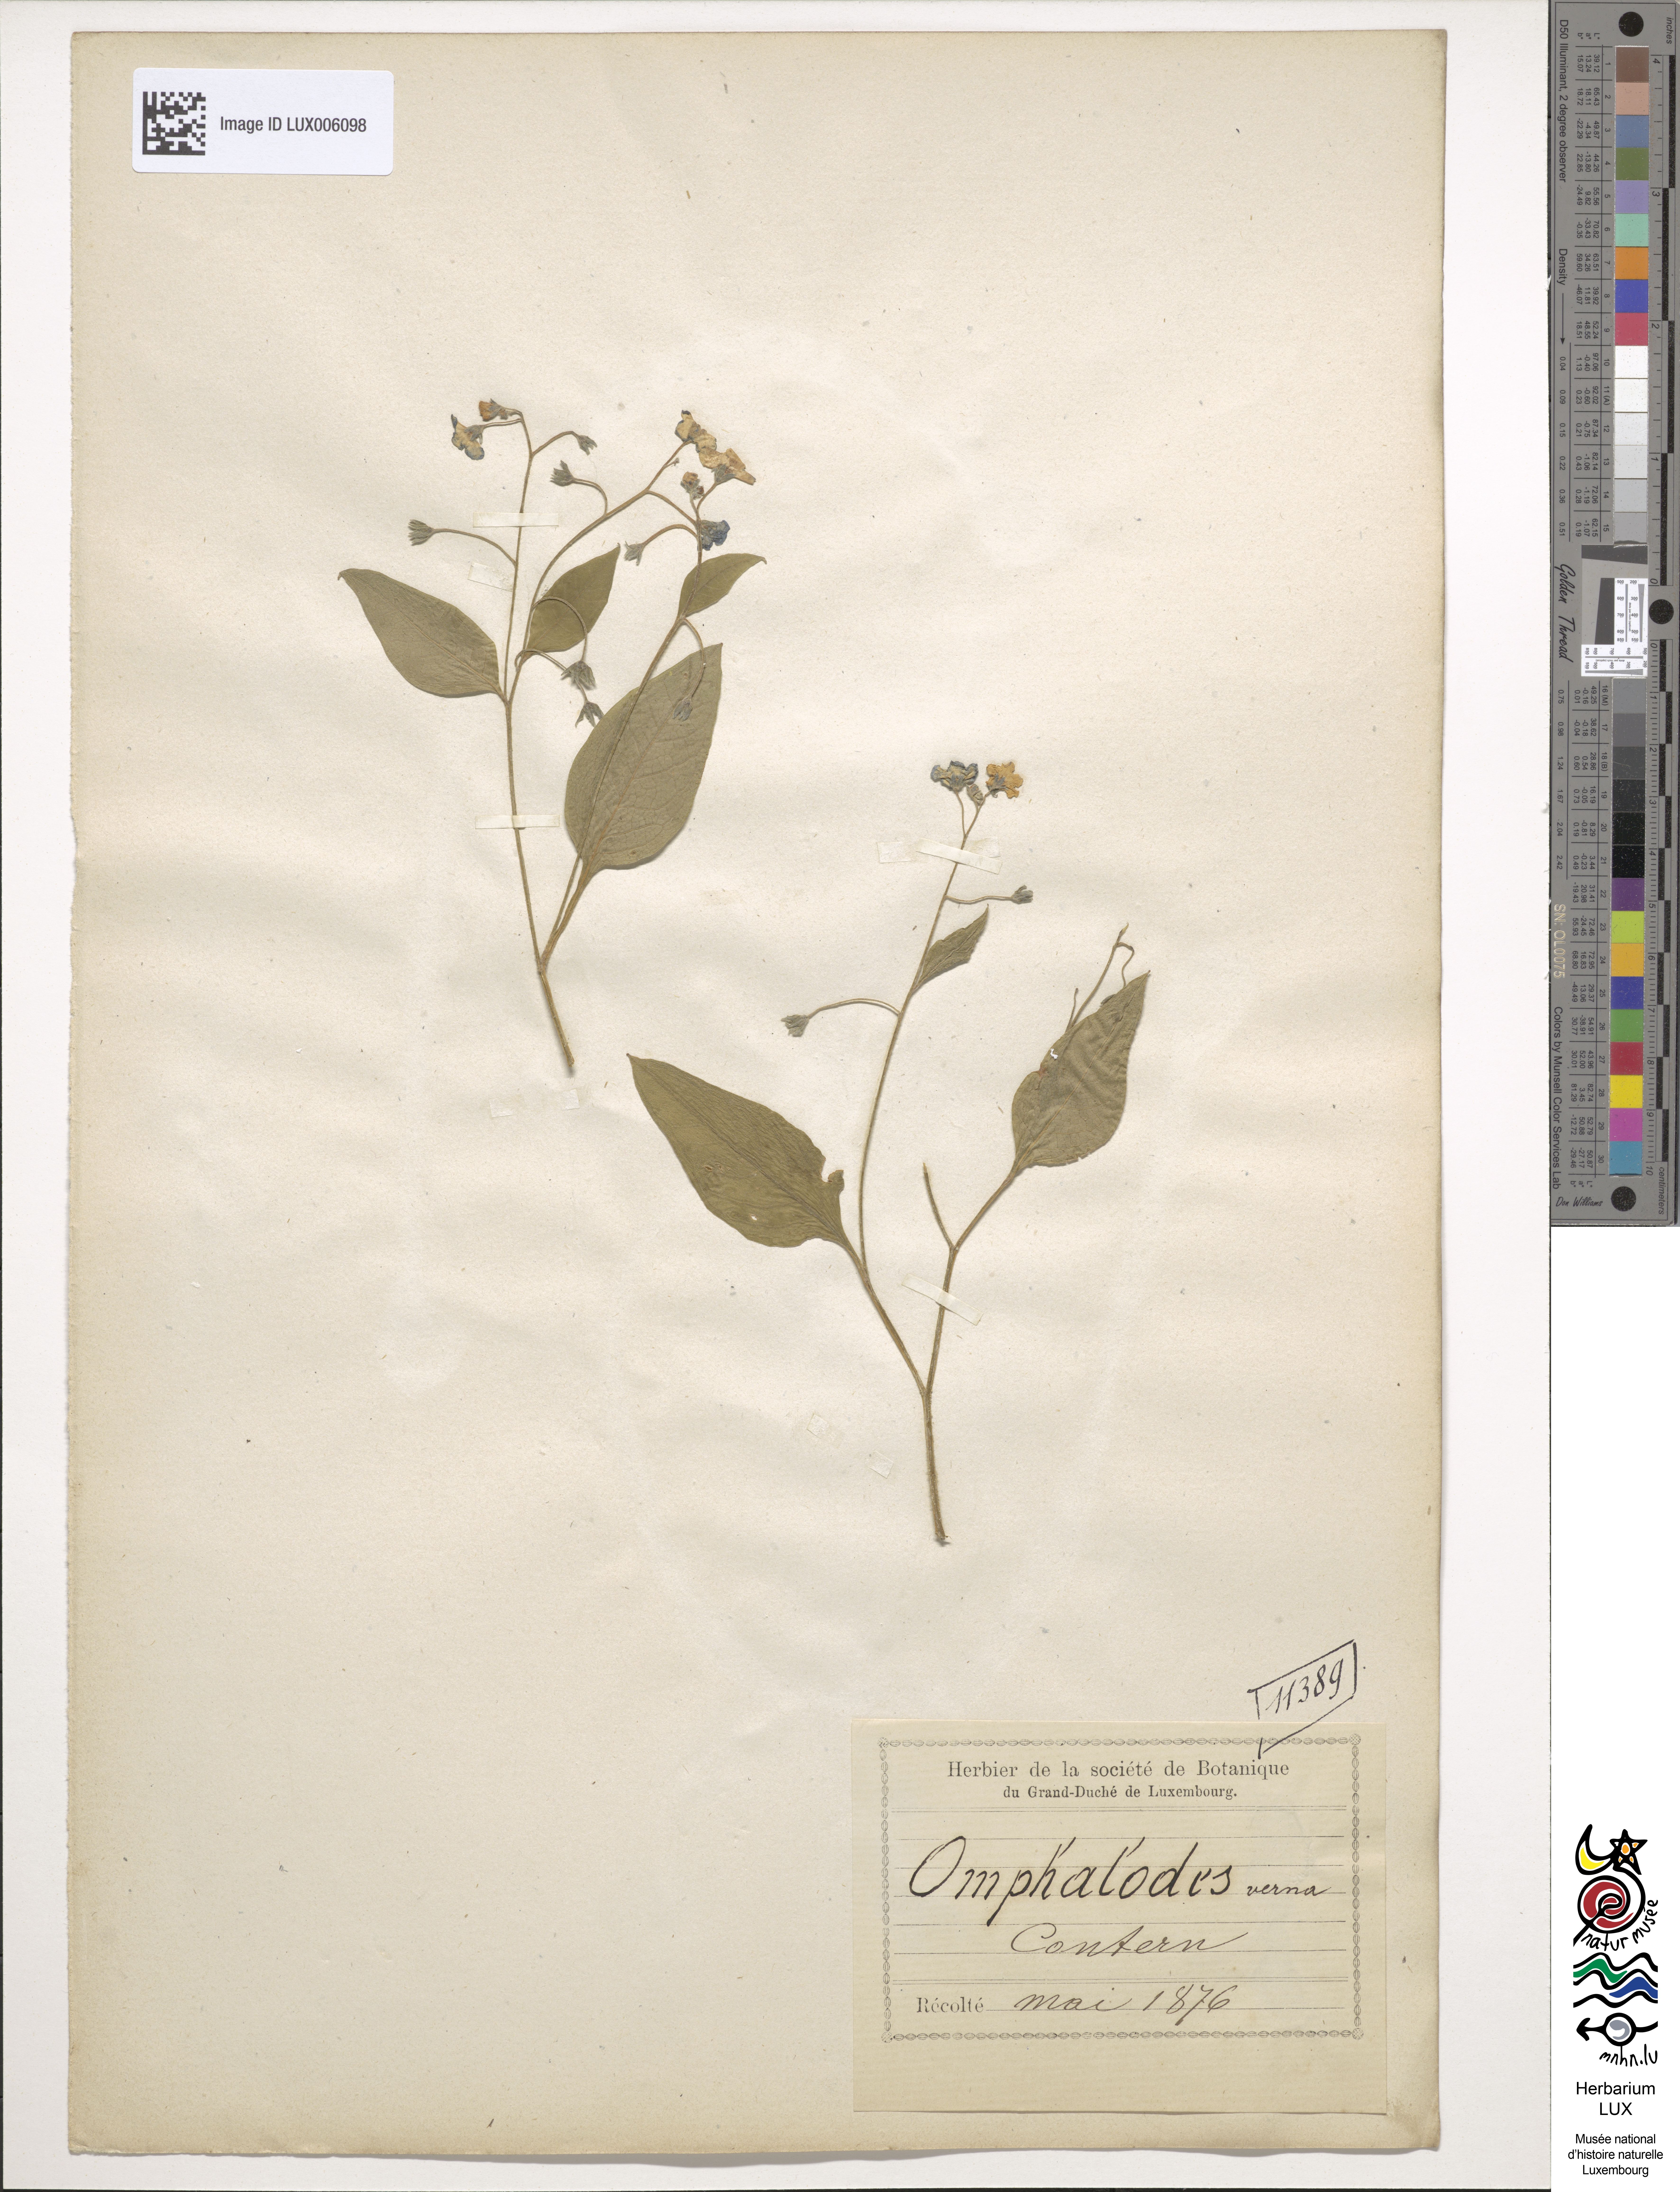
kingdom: Plantae
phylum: Tracheophyta
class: Magnoliopsida
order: Boraginales
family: Boraginaceae
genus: Omphalodes
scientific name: Omphalodes verna
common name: Blue-eyed-mary
